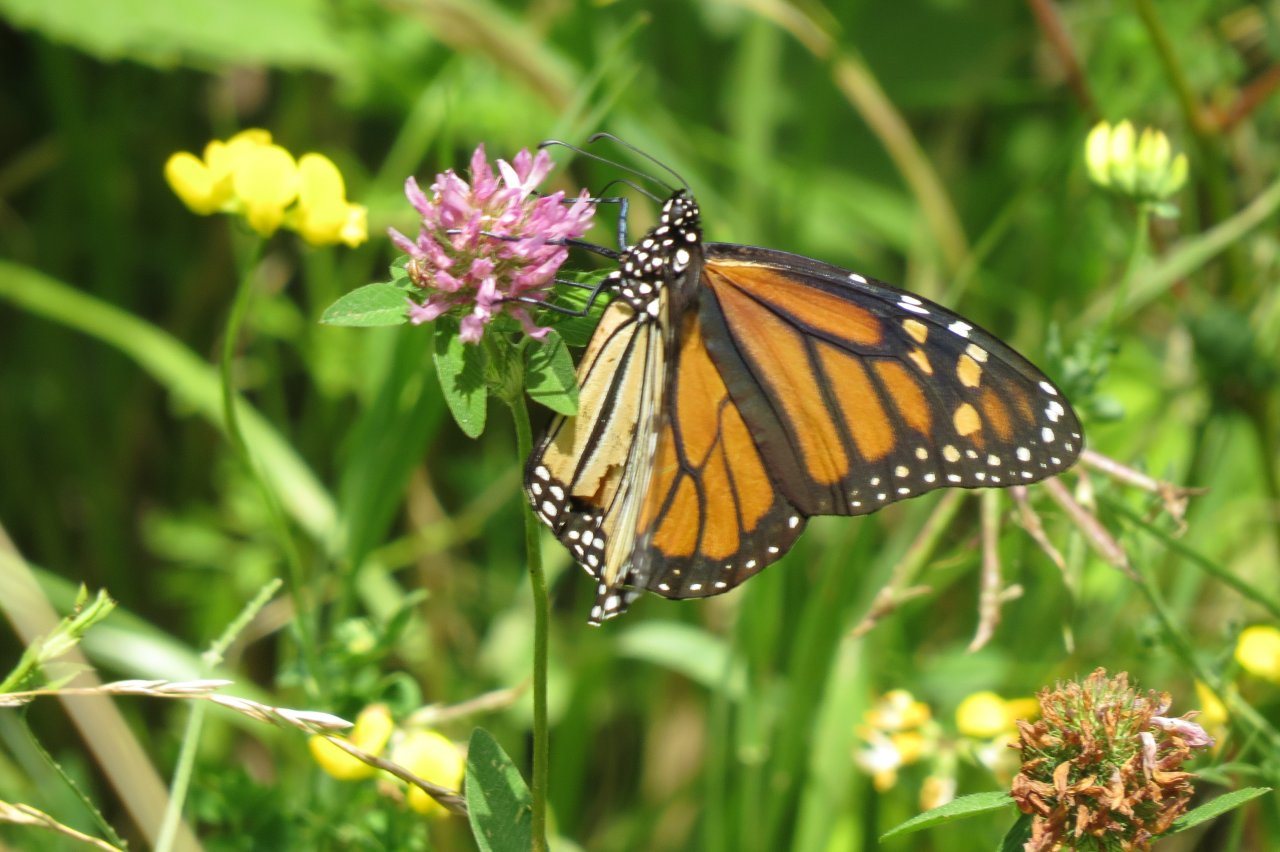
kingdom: Animalia
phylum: Arthropoda
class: Insecta
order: Lepidoptera
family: Nymphalidae
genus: Danaus
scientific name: Danaus plexippus
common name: Monarch
